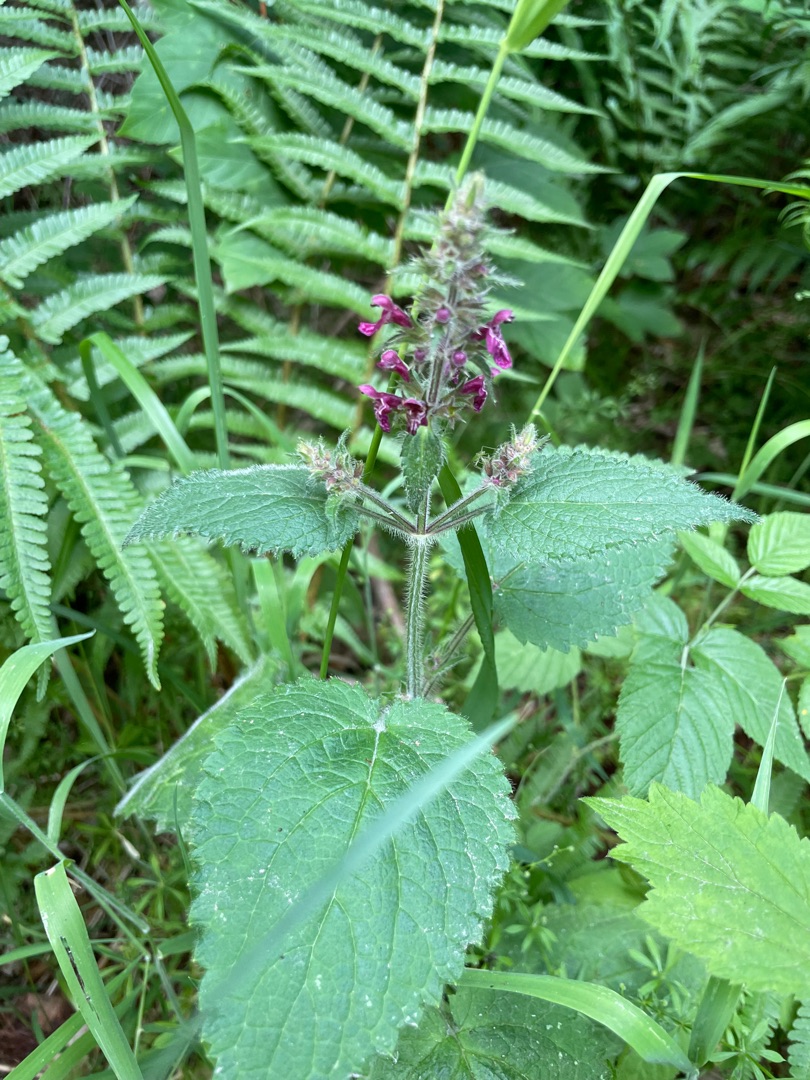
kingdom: Plantae
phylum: Tracheophyta
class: Magnoliopsida
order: Lamiales
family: Lamiaceae
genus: Stachys
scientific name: Stachys sylvatica
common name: Skov-galtetand
